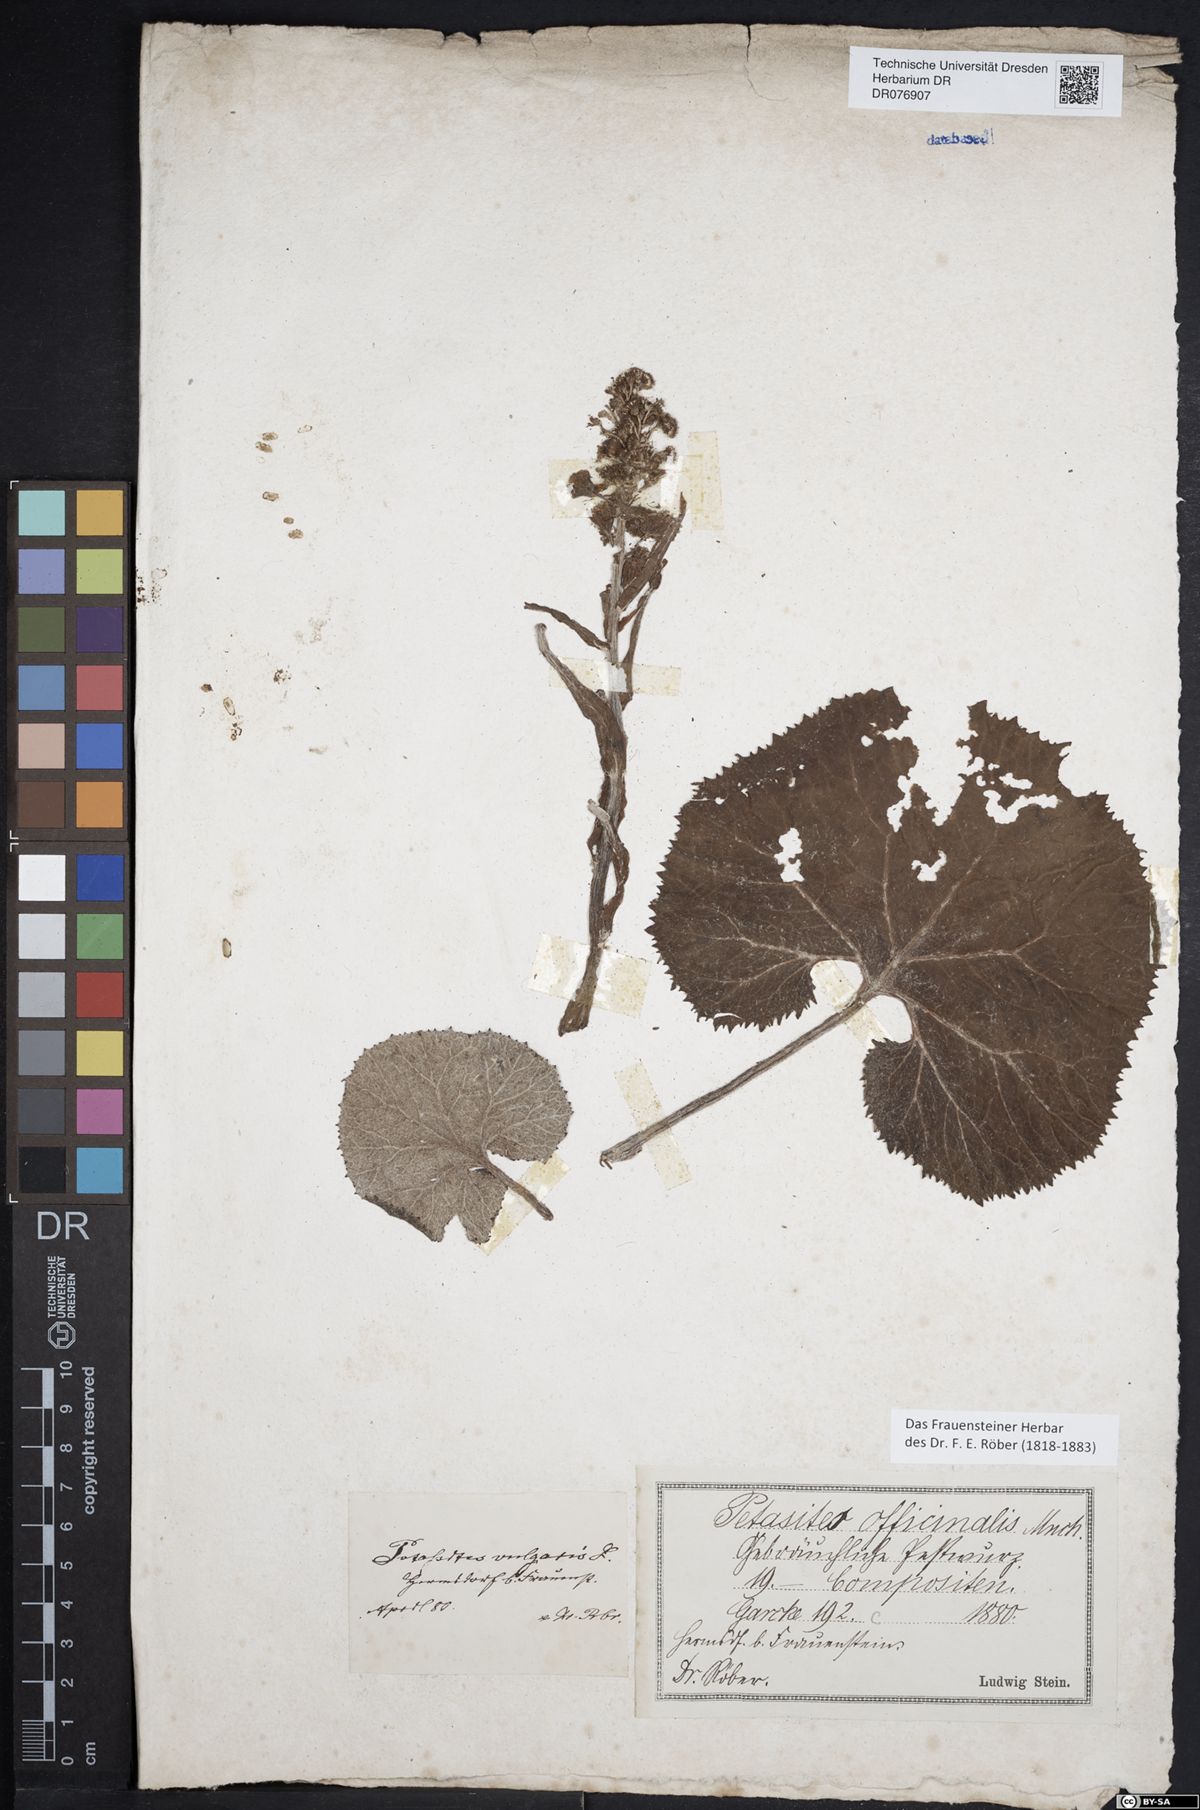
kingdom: Plantae
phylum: Tracheophyta
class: Magnoliopsida
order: Asterales
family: Asteraceae
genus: Petasites
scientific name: Petasites hybridus
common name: Butterbur
